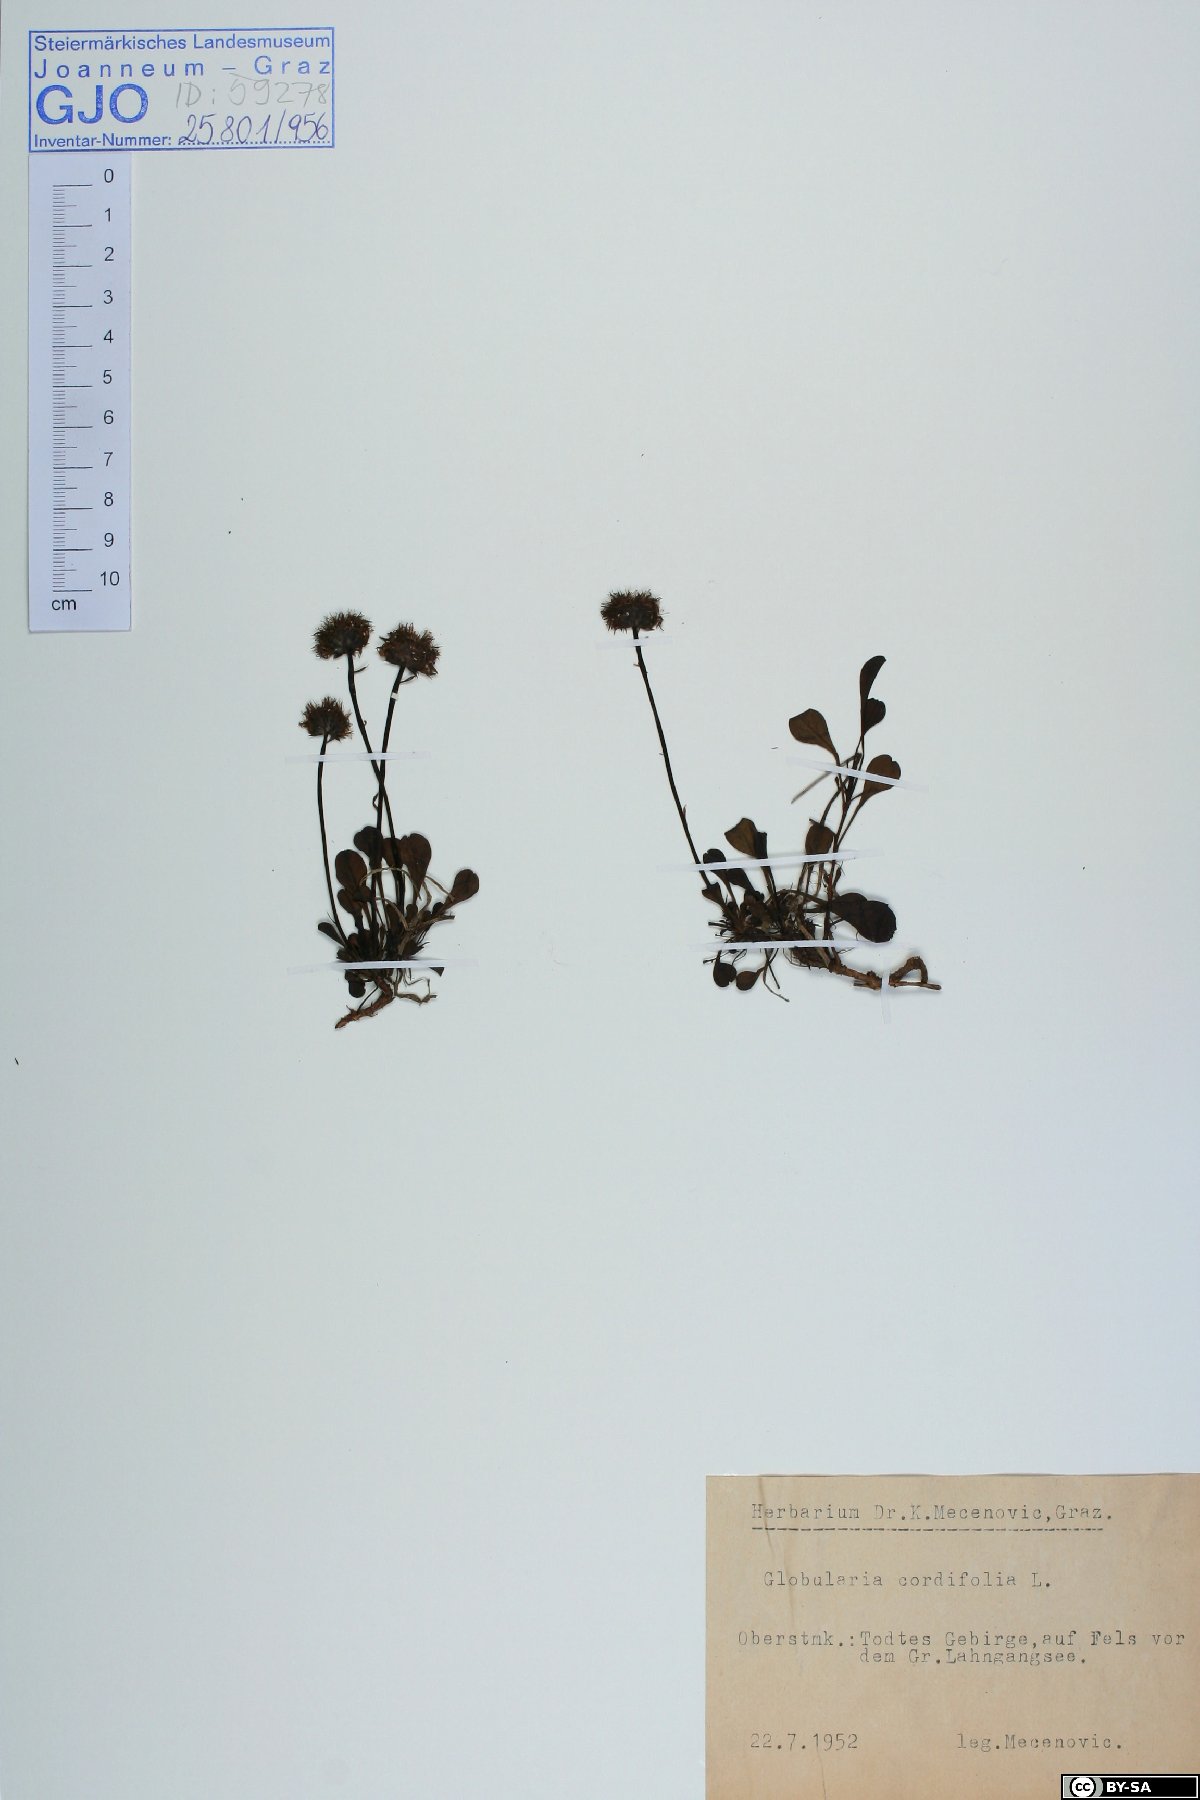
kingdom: Plantae
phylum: Tracheophyta
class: Magnoliopsida
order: Lamiales
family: Plantaginaceae
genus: Globularia
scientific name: Globularia cordifolia
